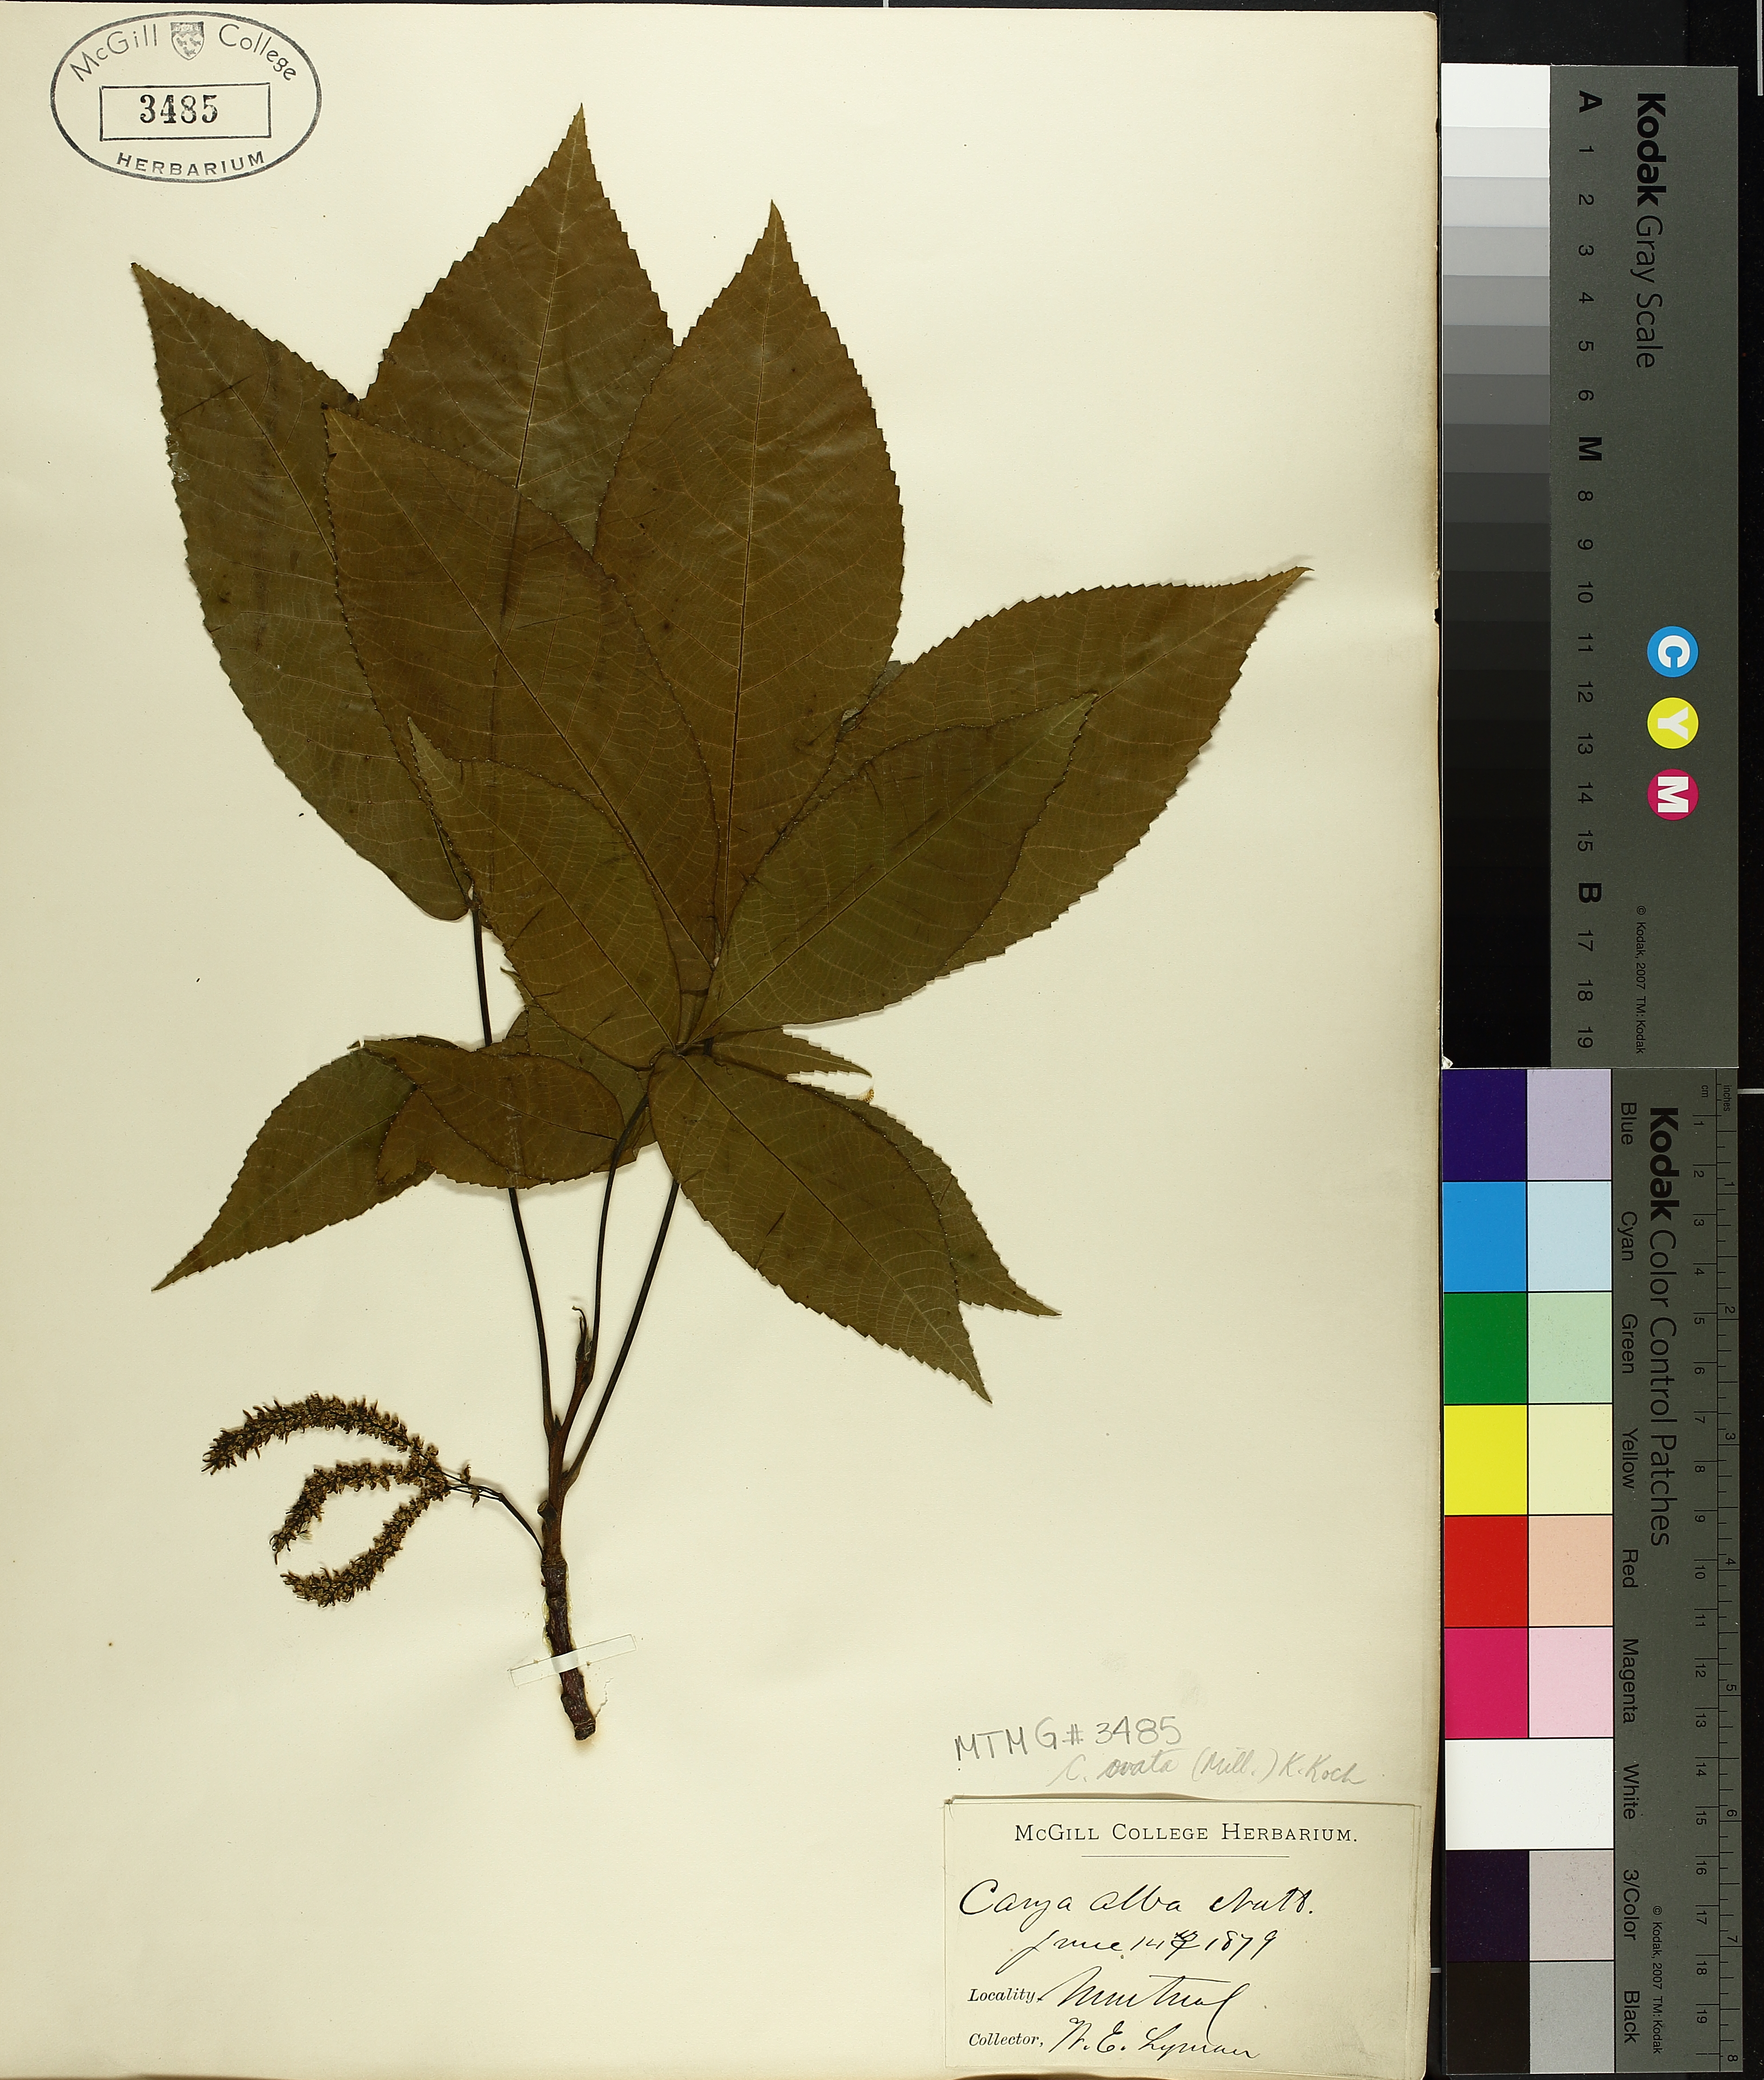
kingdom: Plantae
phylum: Tracheophyta
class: Magnoliopsida
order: Fagales
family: Juglandaceae
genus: Carya
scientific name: Carya ovata
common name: Shagbark hickory
